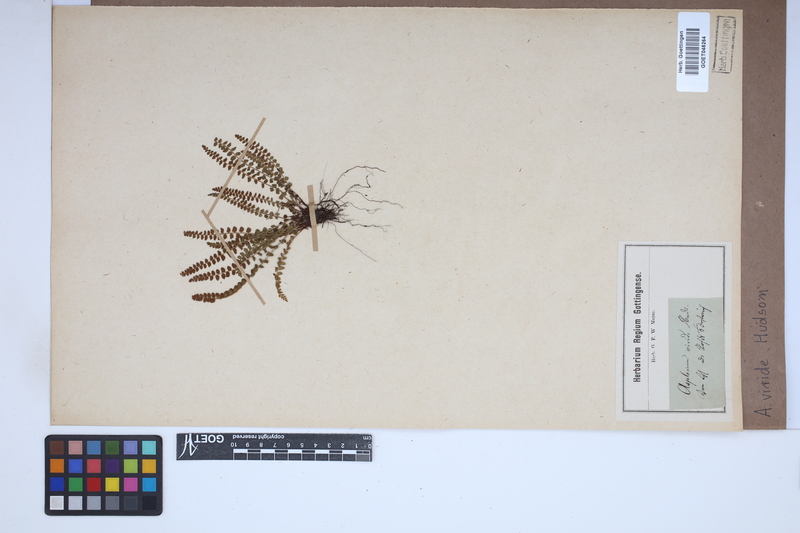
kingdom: Plantae
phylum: Tracheophyta
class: Polypodiopsida
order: Polypodiales
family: Aspleniaceae
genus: Asplenium
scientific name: Asplenium viride
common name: Green spleenwort
